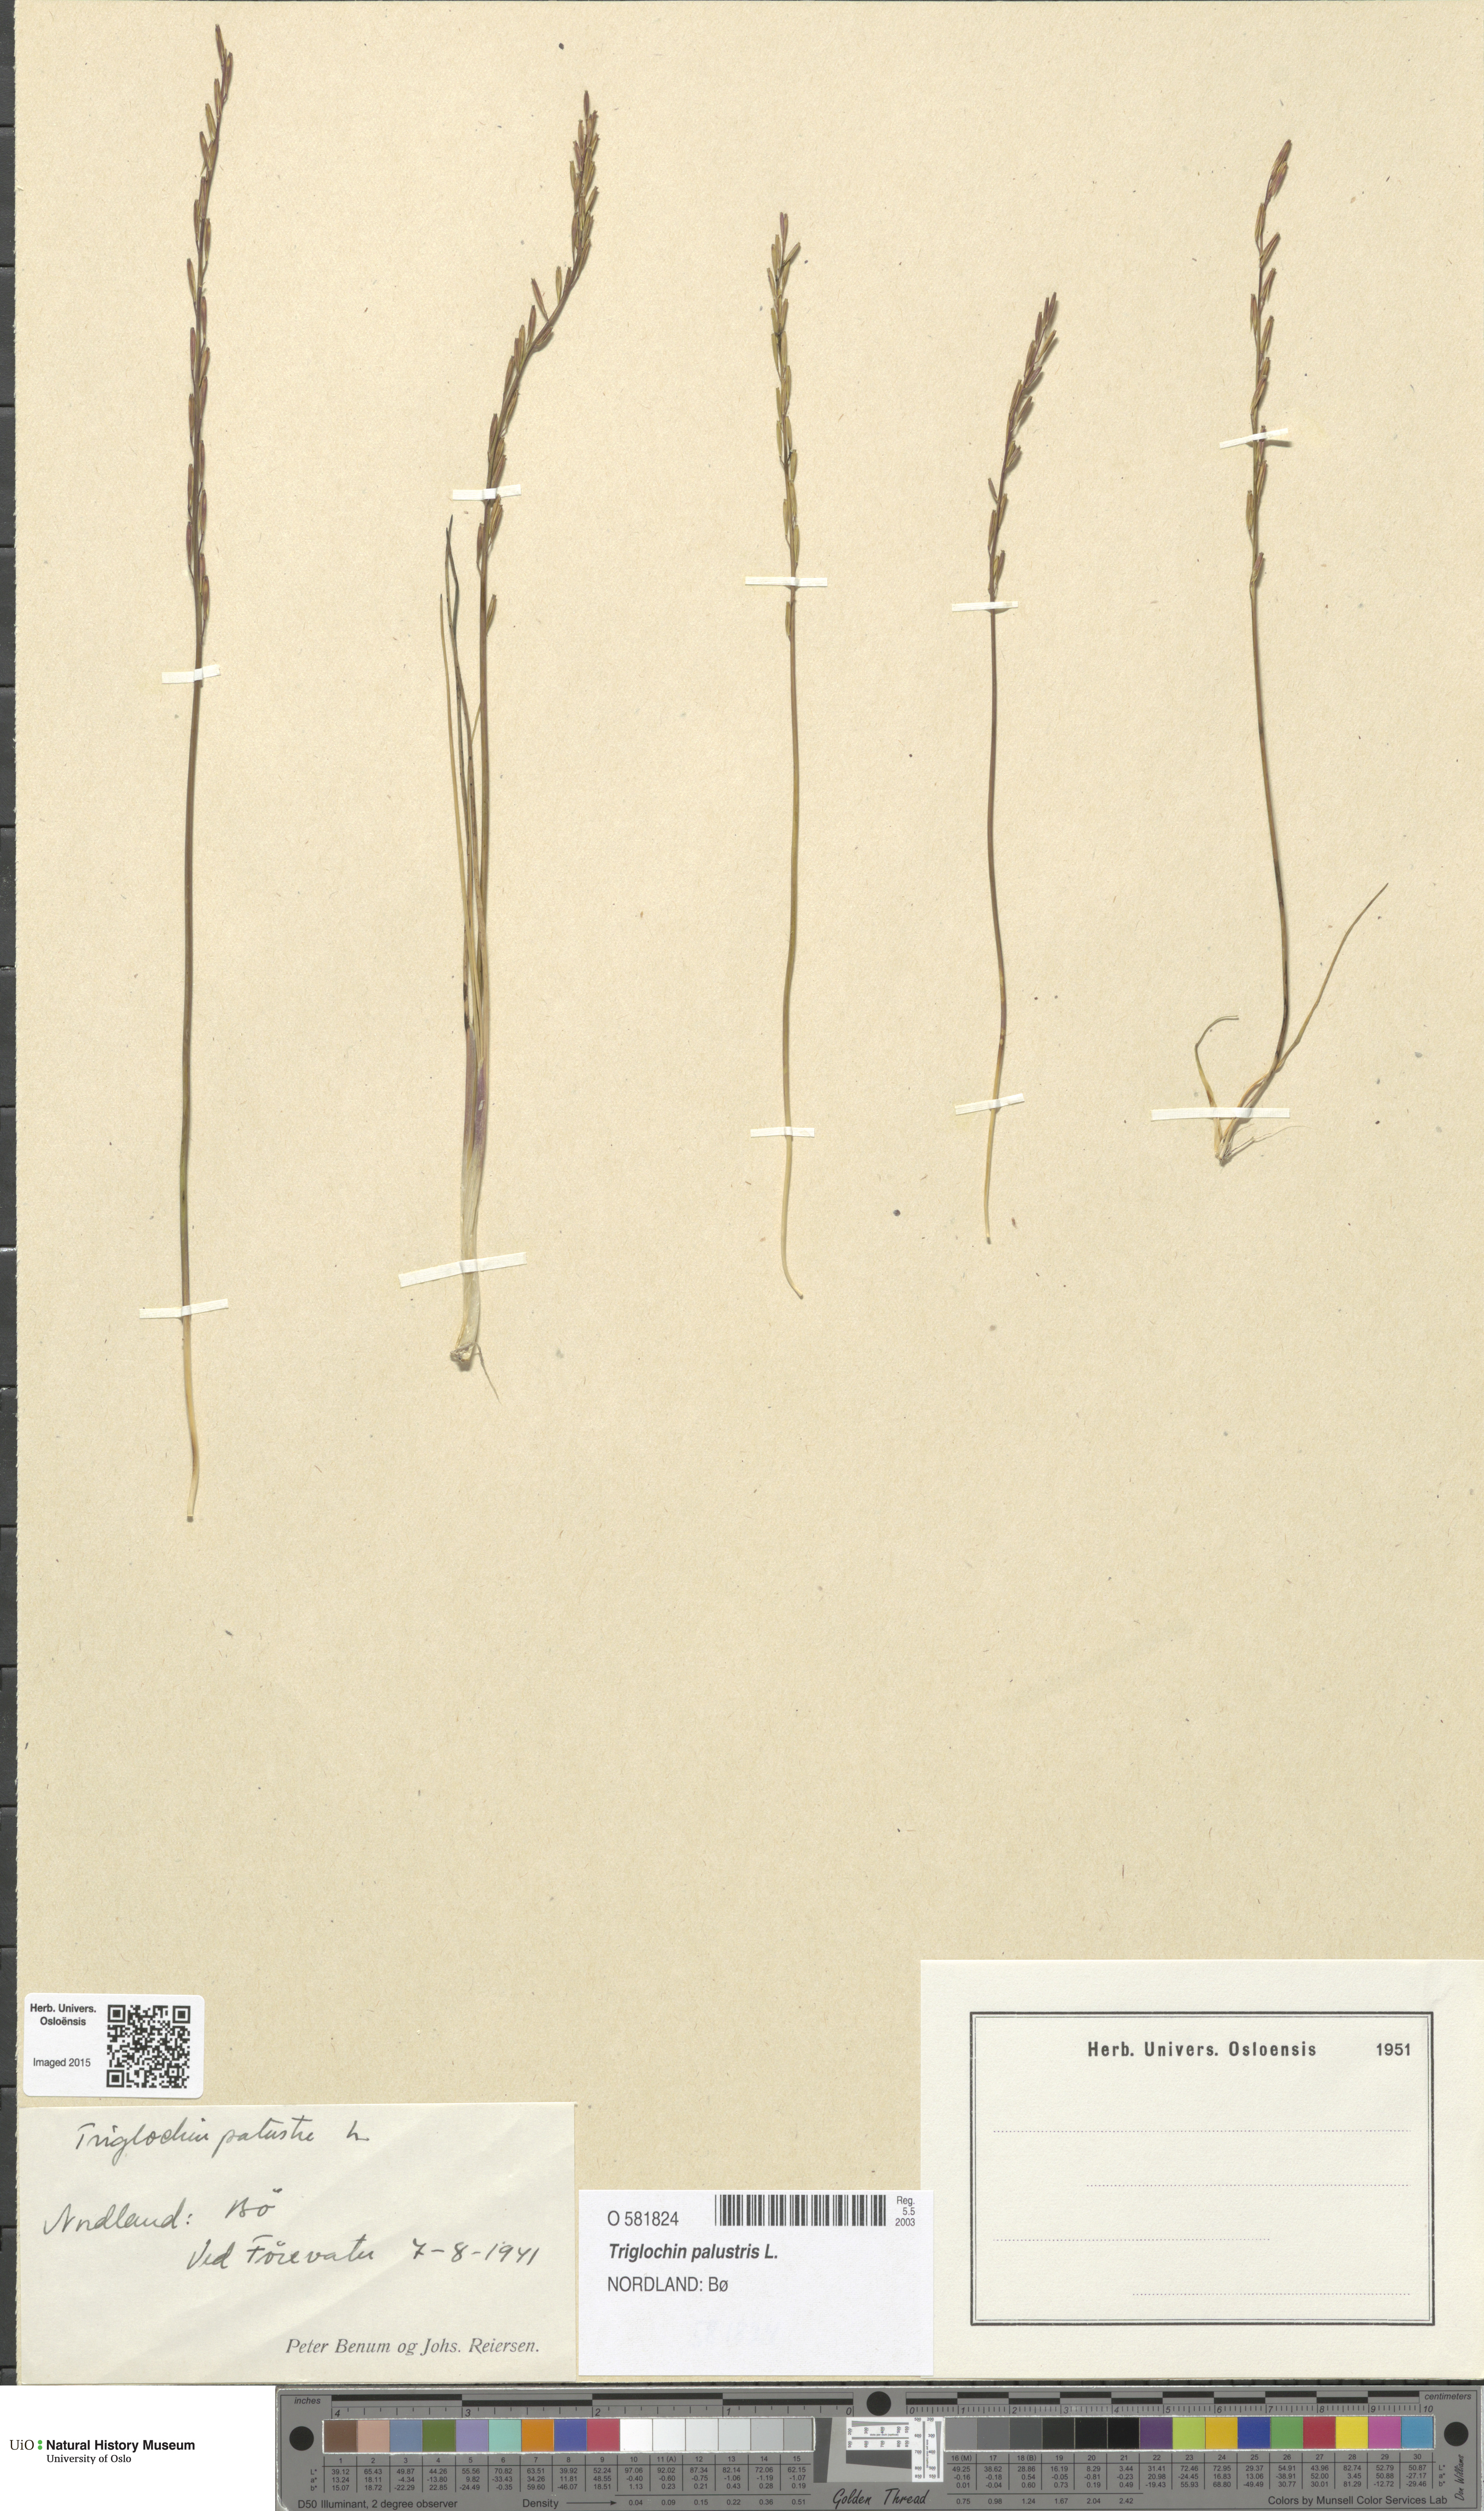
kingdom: Plantae
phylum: Tracheophyta
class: Liliopsida
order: Alismatales
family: Juncaginaceae
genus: Triglochin
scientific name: Triglochin palustris
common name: Marsh arrowgrass
